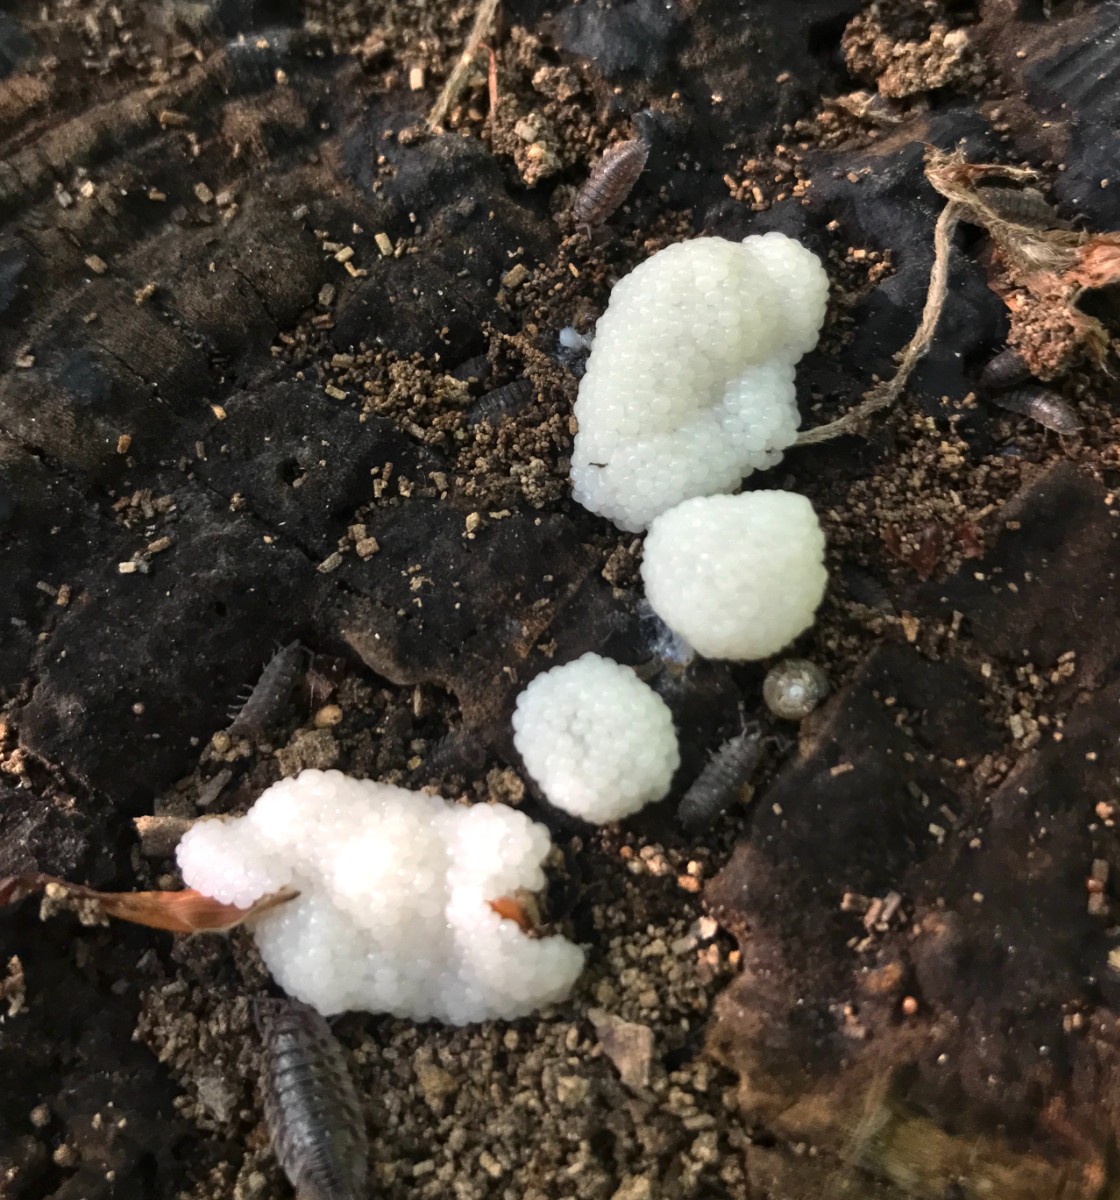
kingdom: Protozoa
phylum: Mycetozoa
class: Myxomycetes
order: Cribrariales
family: Tubiferaceae
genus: Reticularia
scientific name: Reticularia lycoperdon
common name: skinnende støvpude
